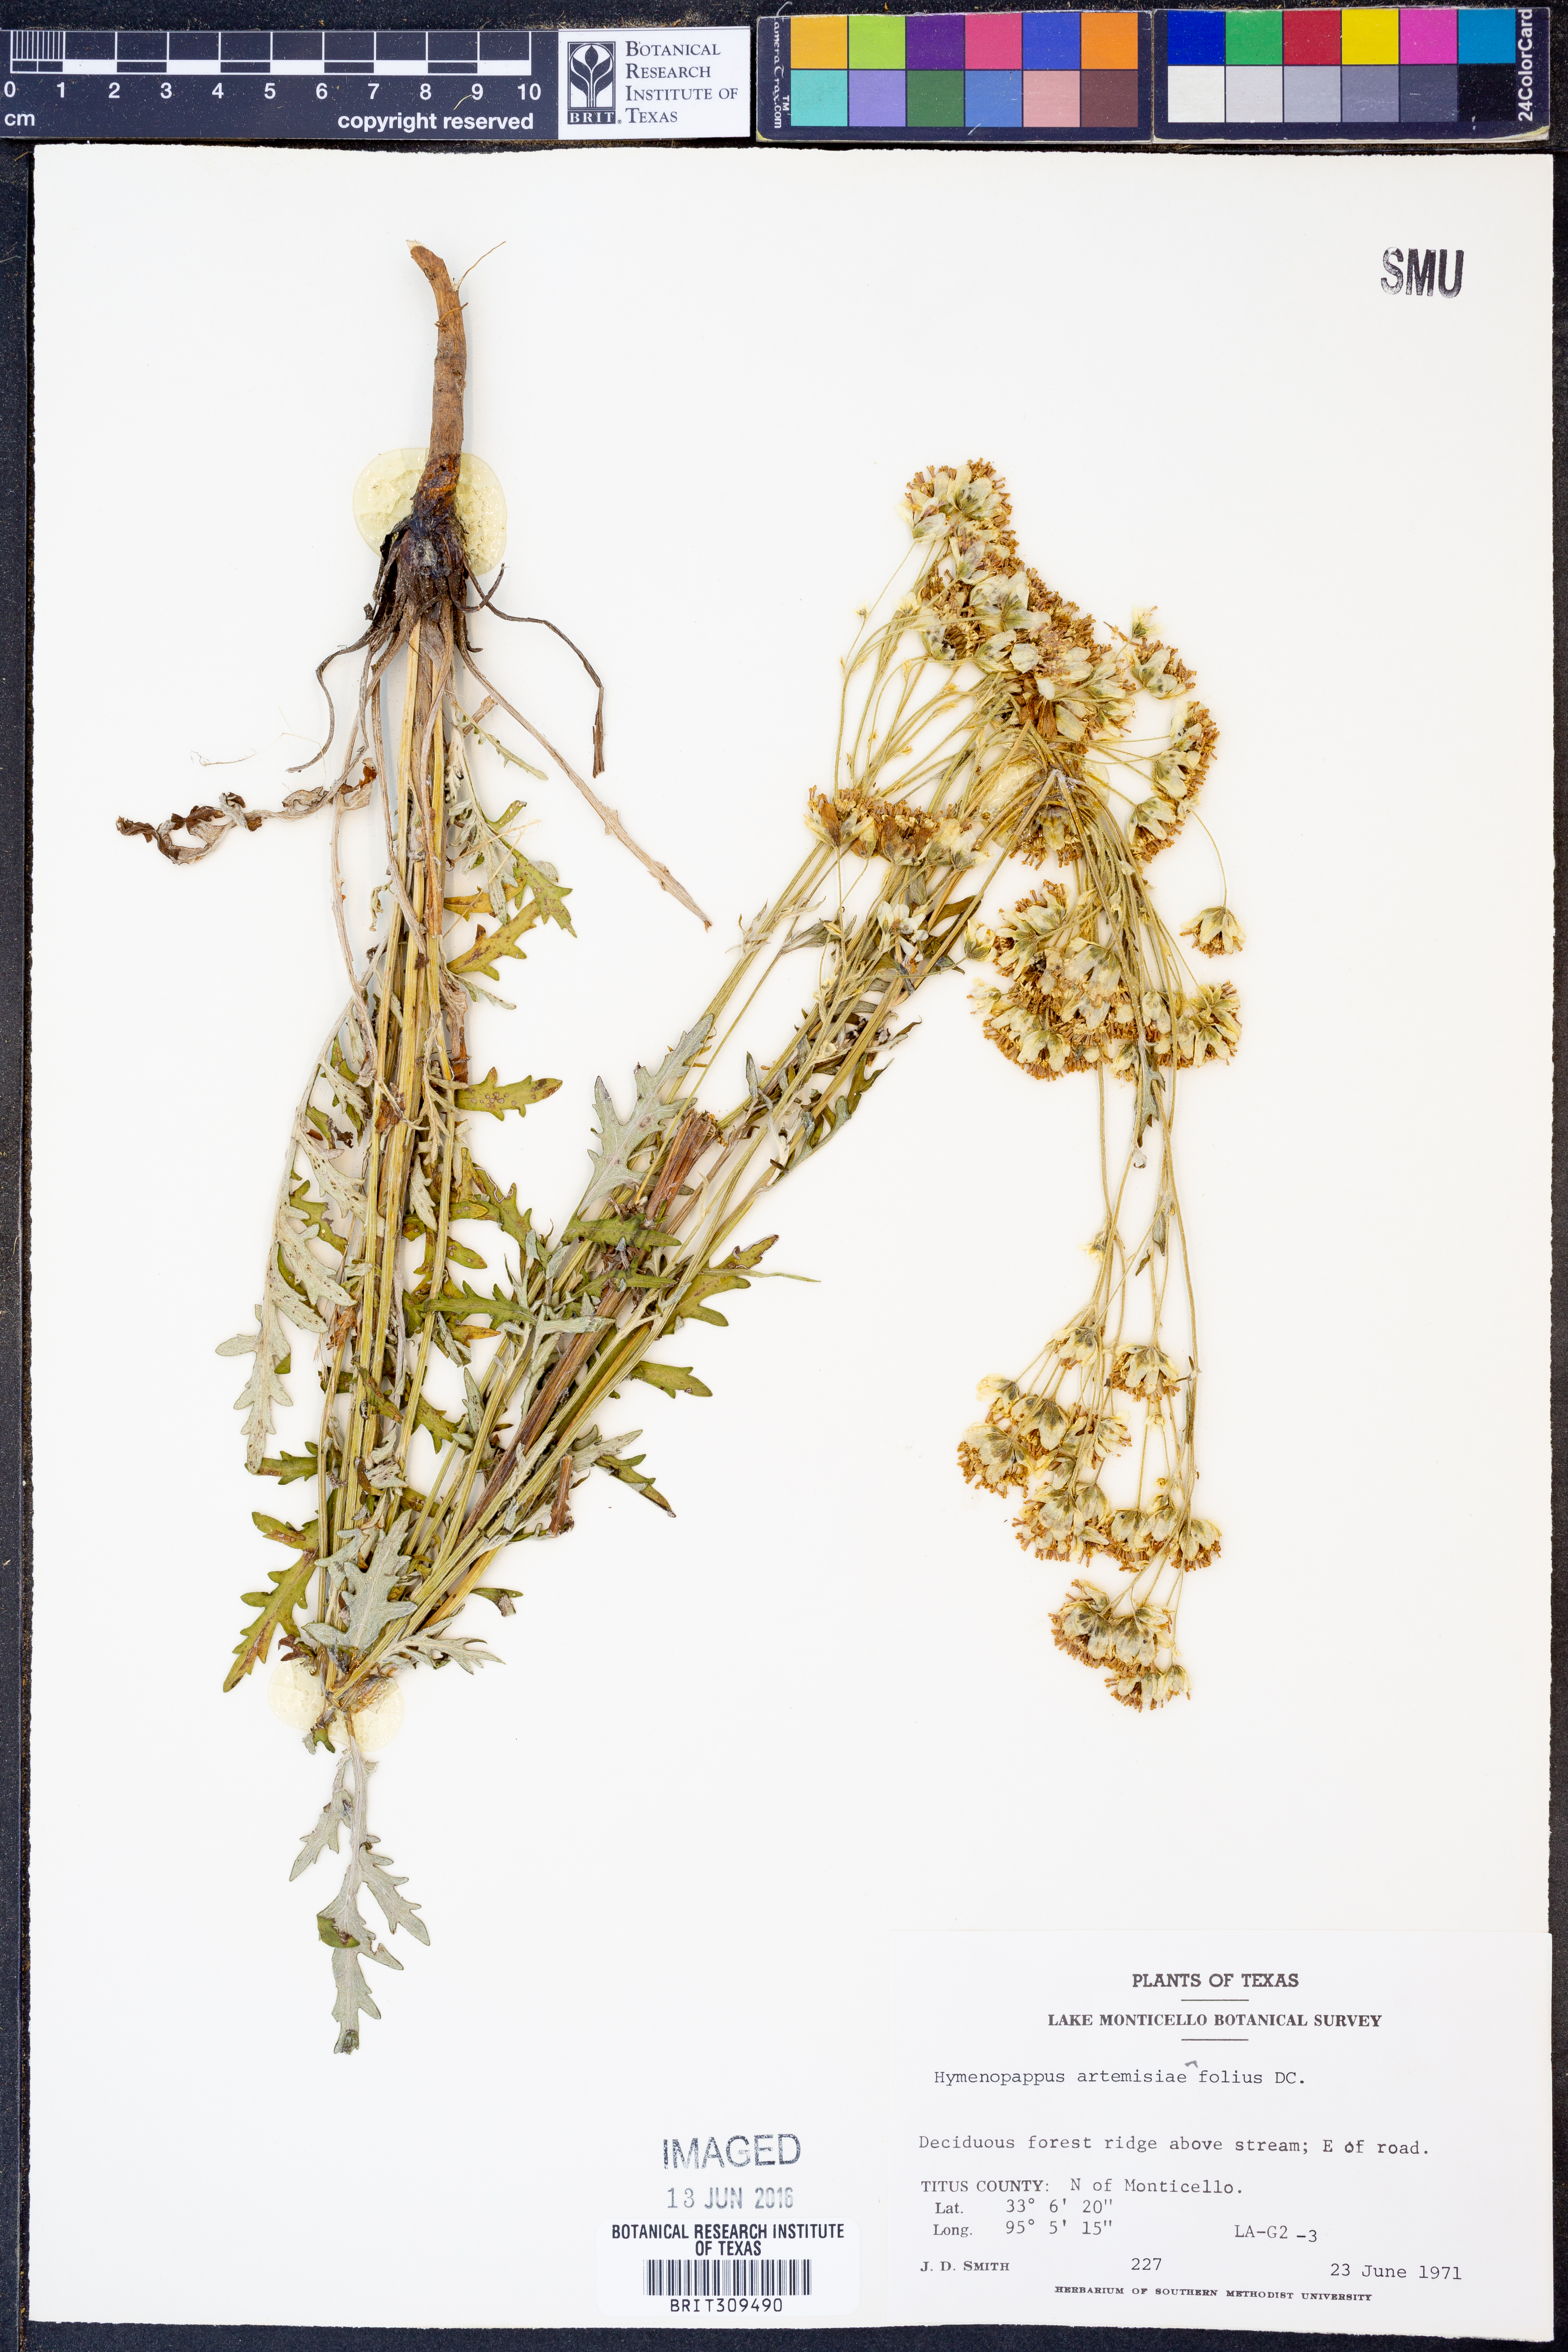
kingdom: Plantae
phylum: Tracheophyta
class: Magnoliopsida
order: Asterales
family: Asteraceae
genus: Hymenopappus
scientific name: Hymenopappus artemisiifolius
